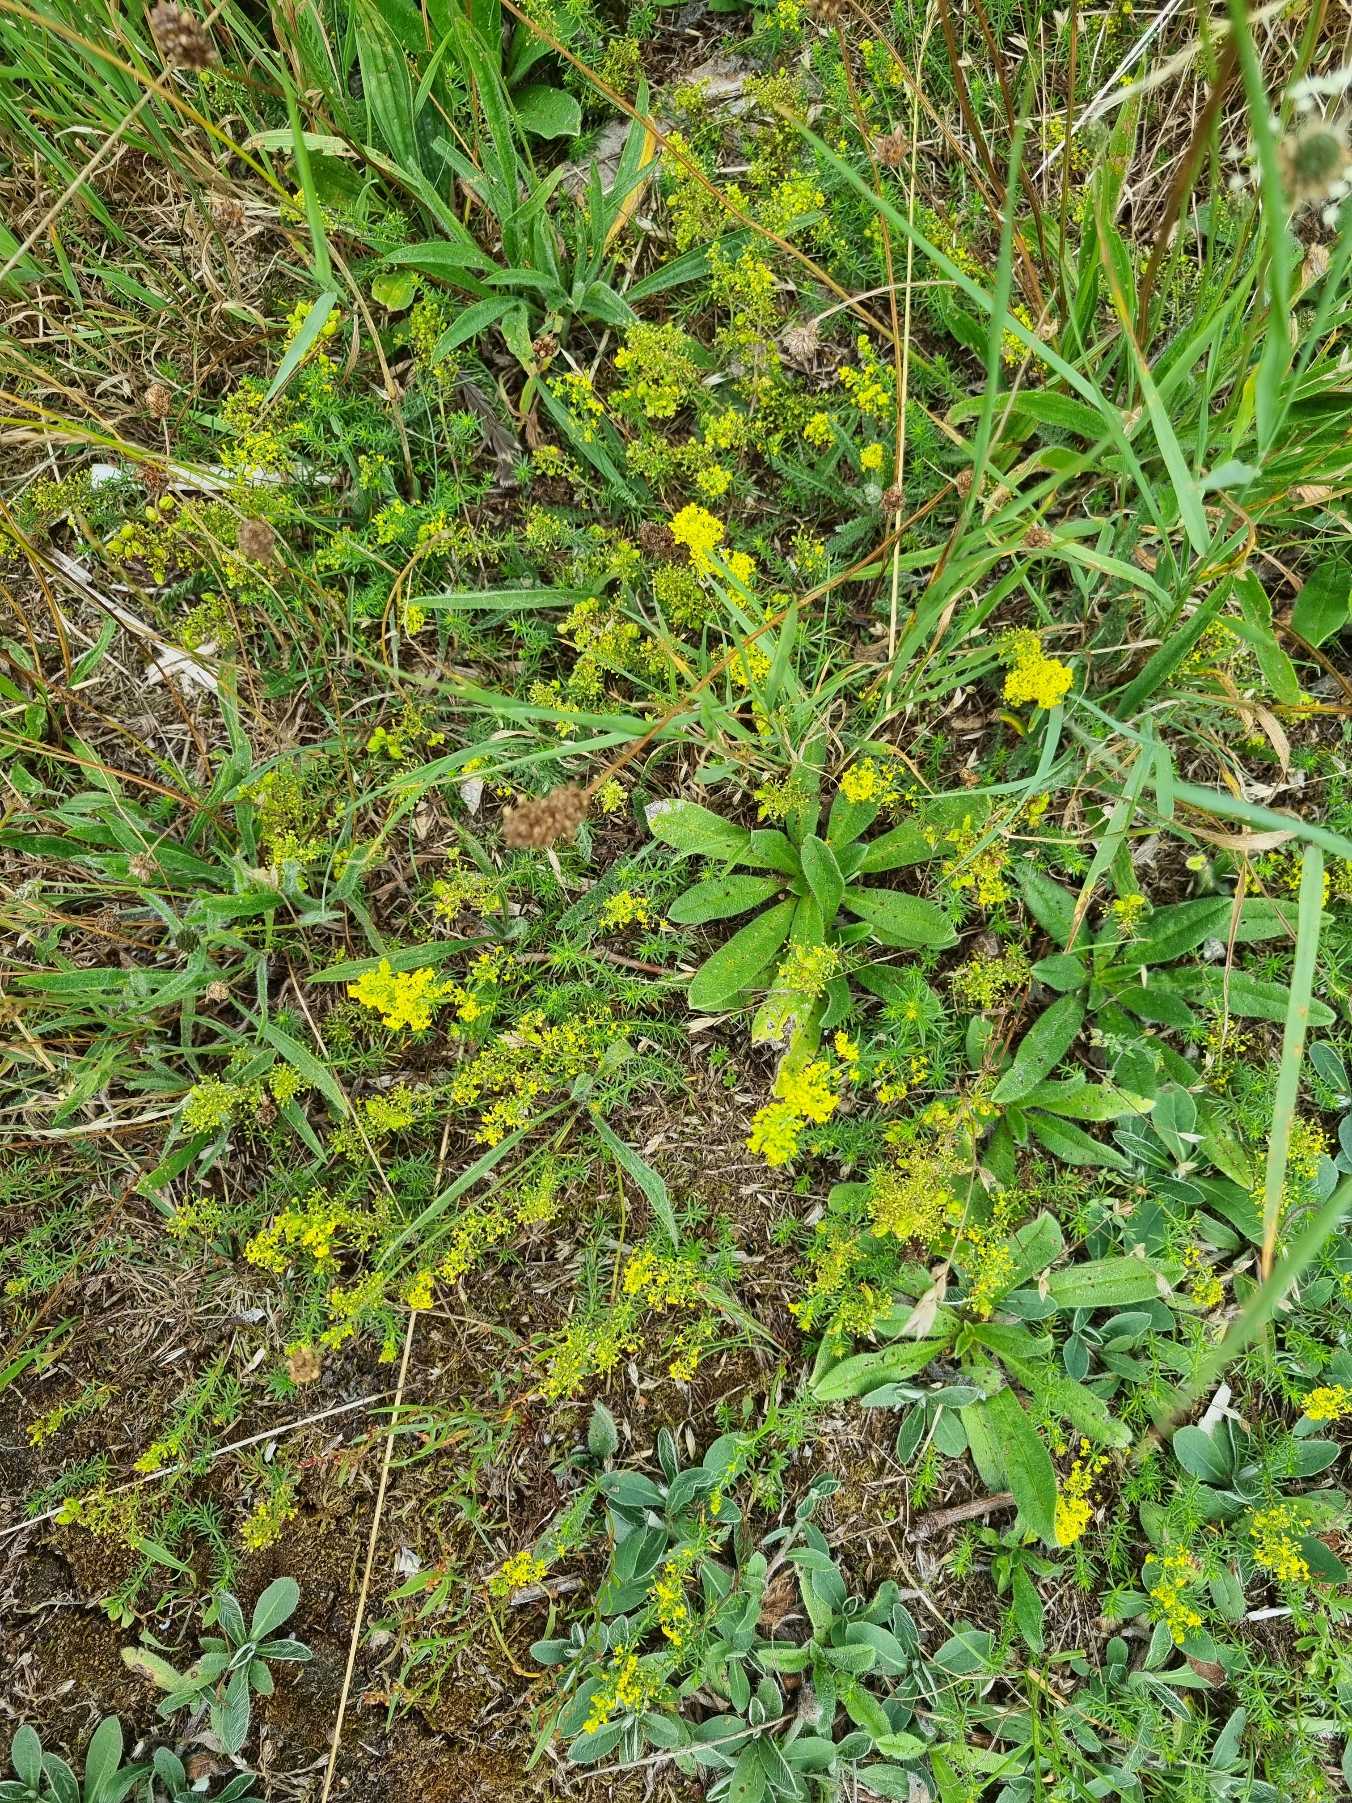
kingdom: Plantae
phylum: Tracheophyta
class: Magnoliopsida
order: Gentianales
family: Rubiaceae
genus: Galium
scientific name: Galium verum
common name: Gul snerre
